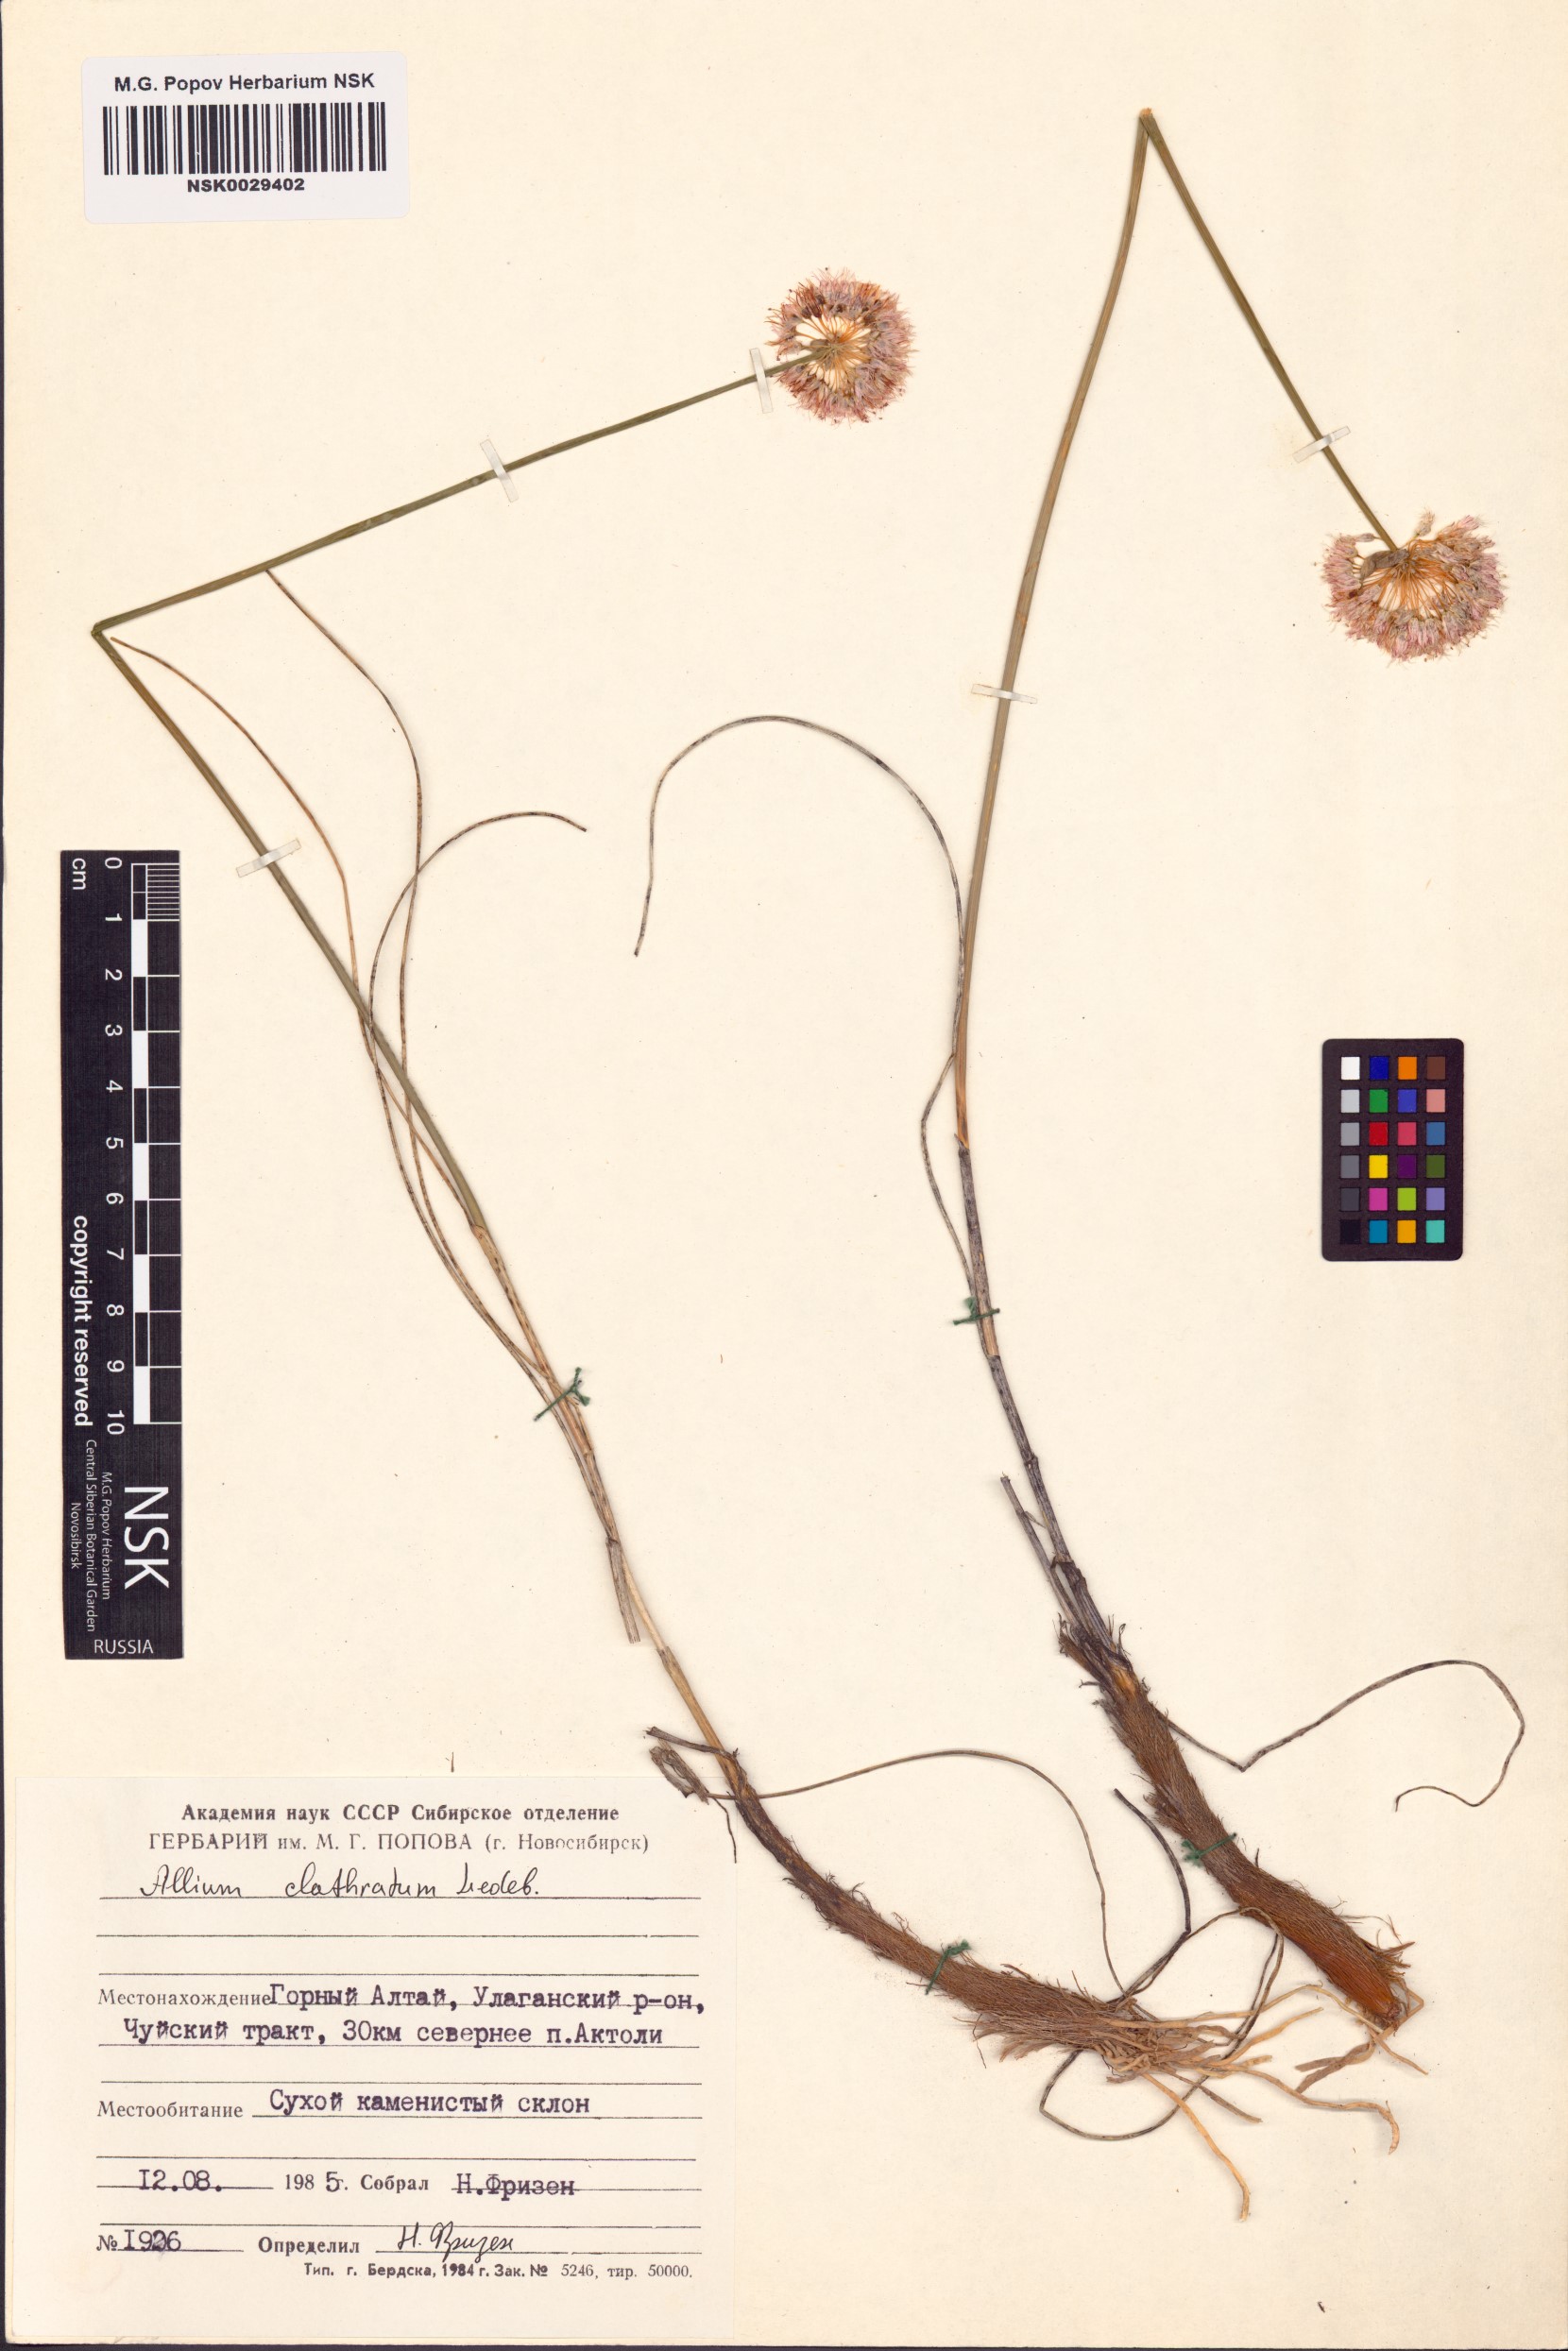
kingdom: Plantae
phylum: Tracheophyta
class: Liliopsida
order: Asparagales
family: Amaryllidaceae
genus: Allium
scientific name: Allium clathratum
